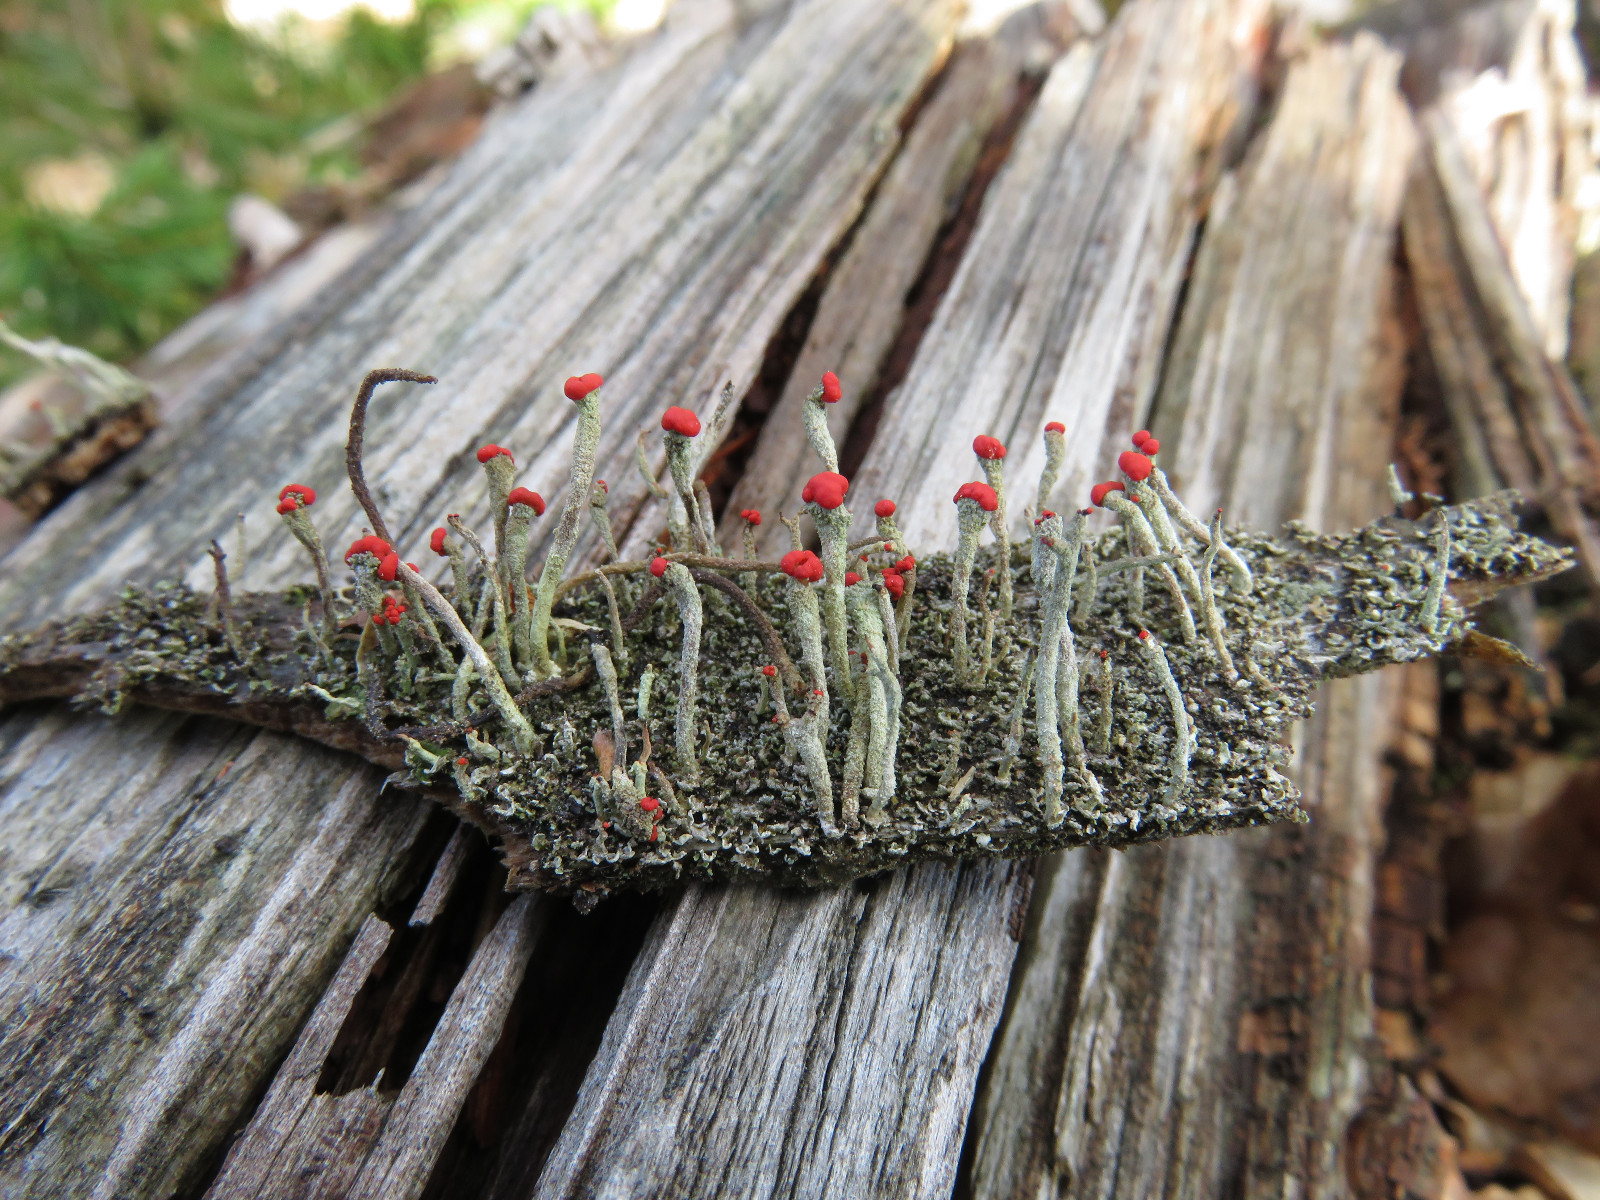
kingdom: Fungi
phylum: Ascomycota
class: Lecanoromycetes
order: Lecanorales
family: Cladoniaceae
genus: Cladonia
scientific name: Cladonia macilenta
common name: indsvunden bægerlav
